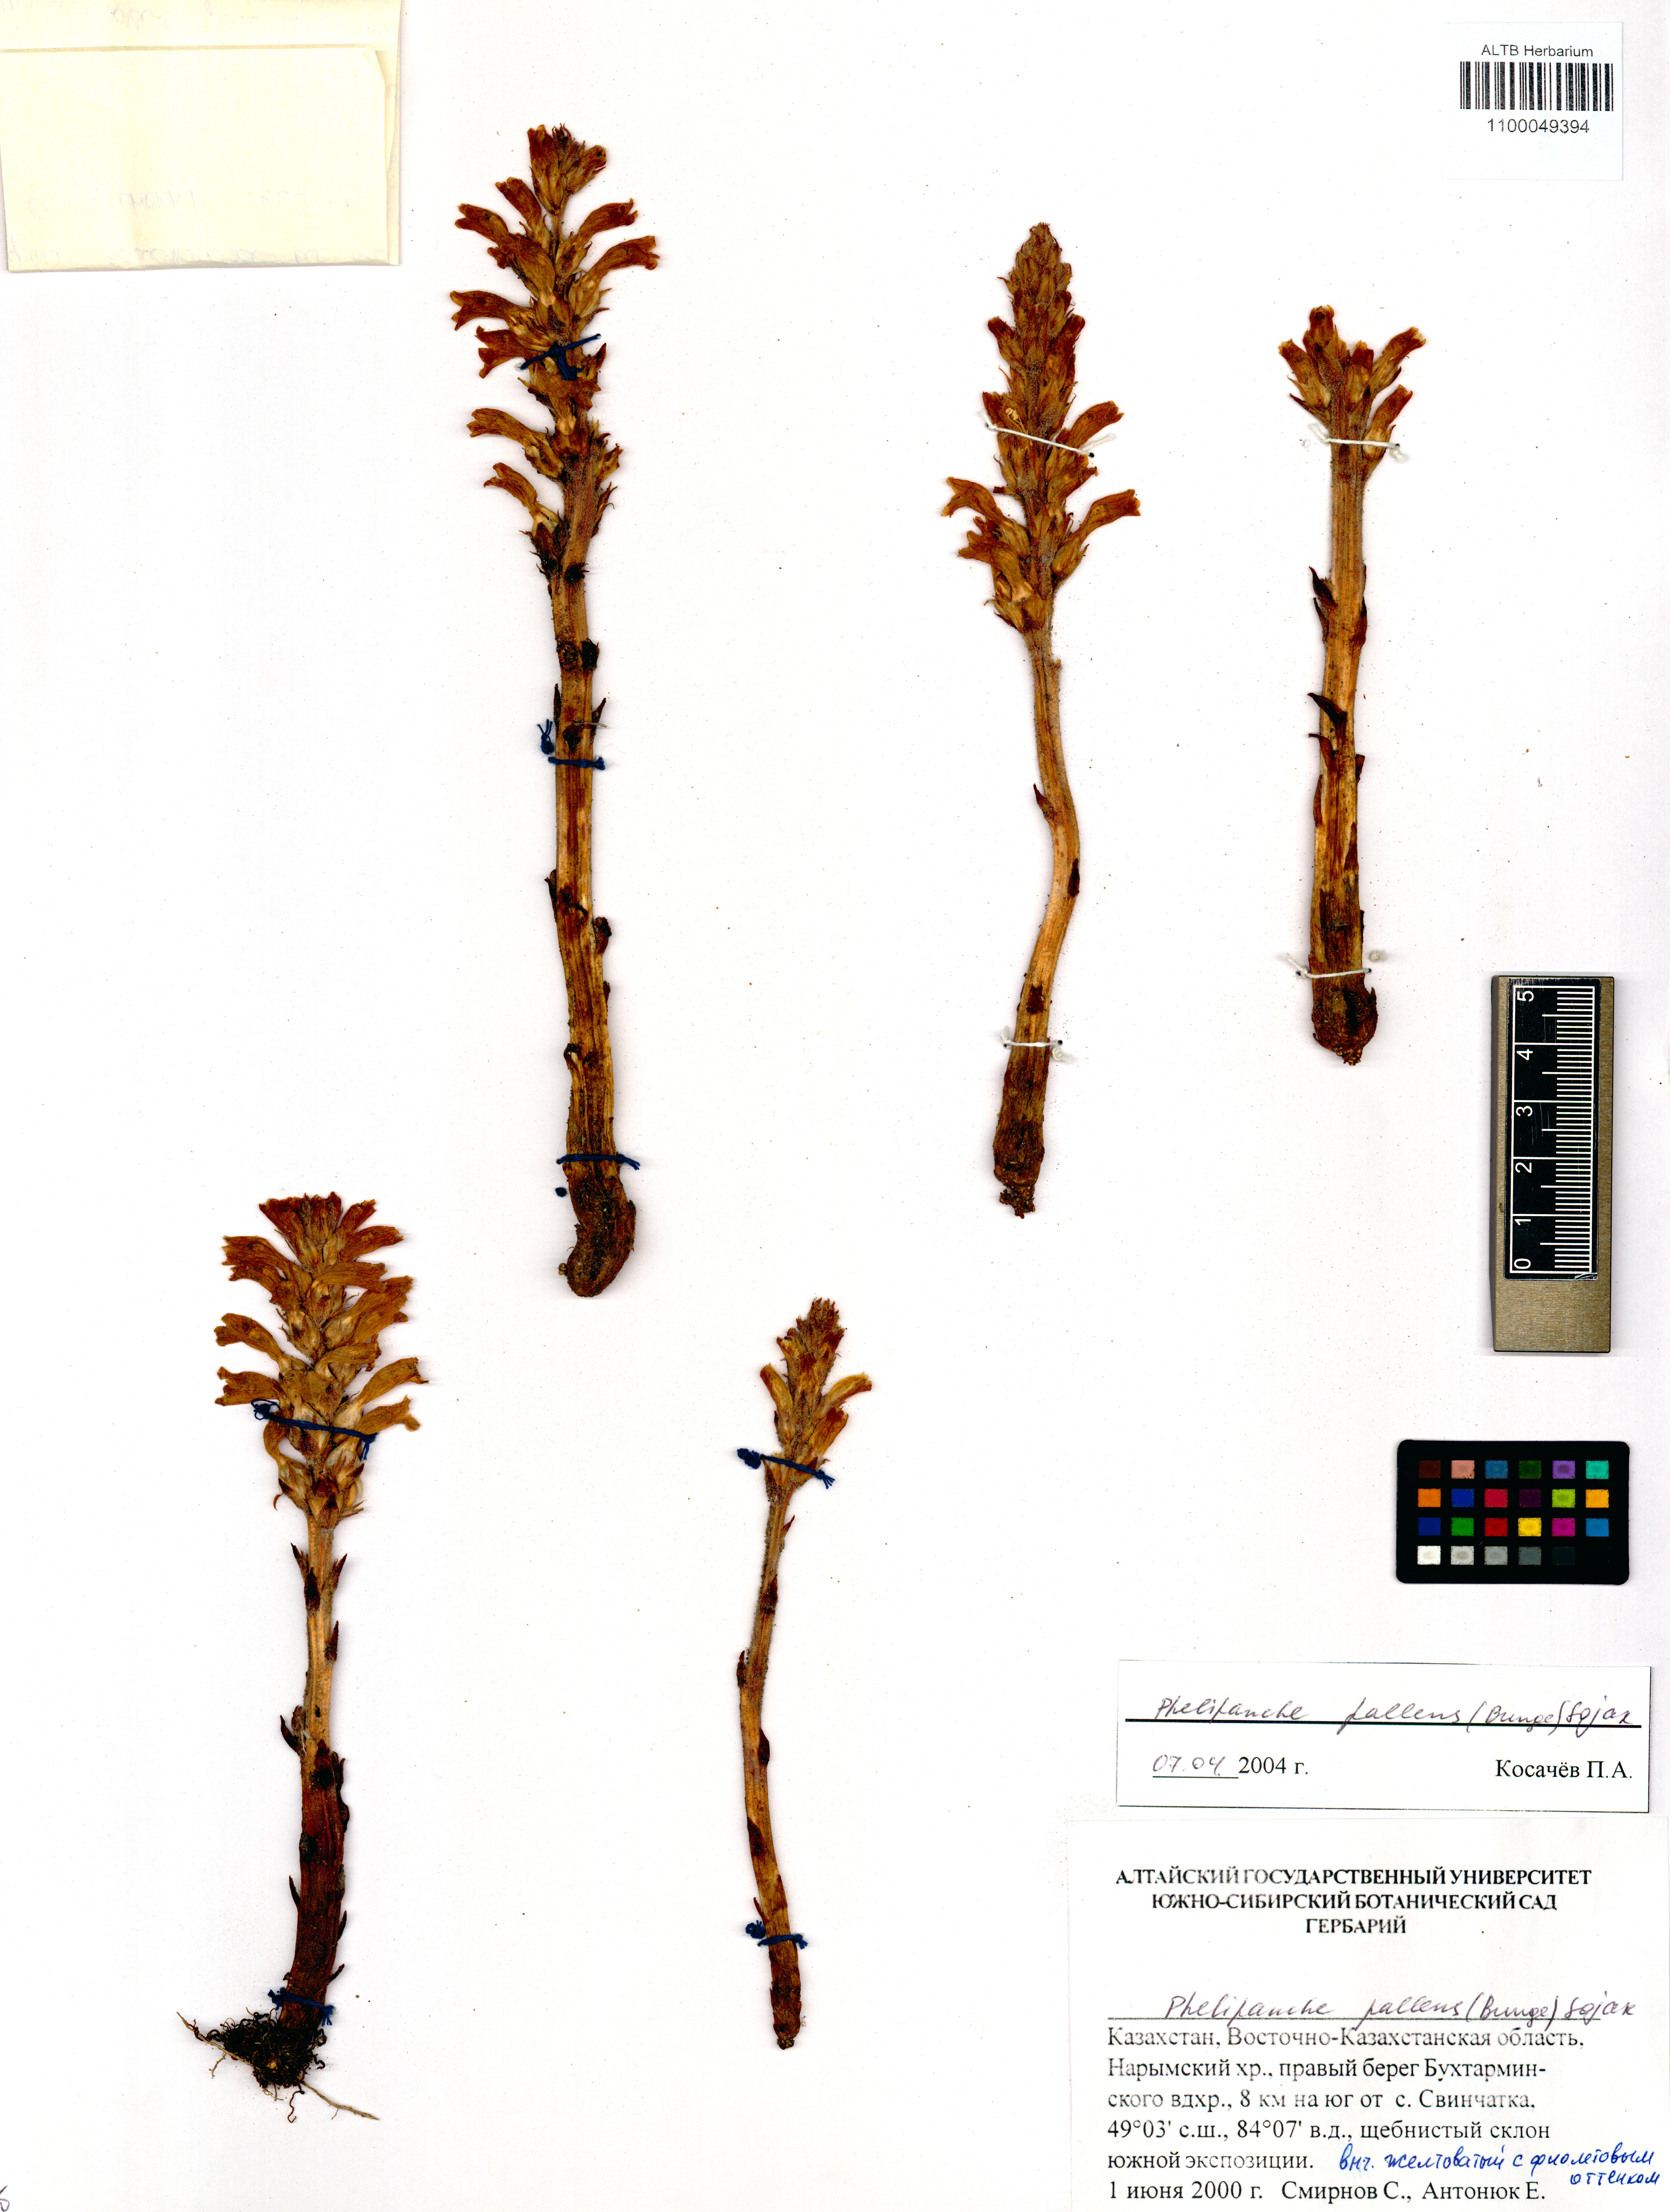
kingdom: Plantae
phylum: Tracheophyta
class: Magnoliopsida
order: Lamiales
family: Orobanchaceae
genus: Phelipanche
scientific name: Phelipanche pallens
